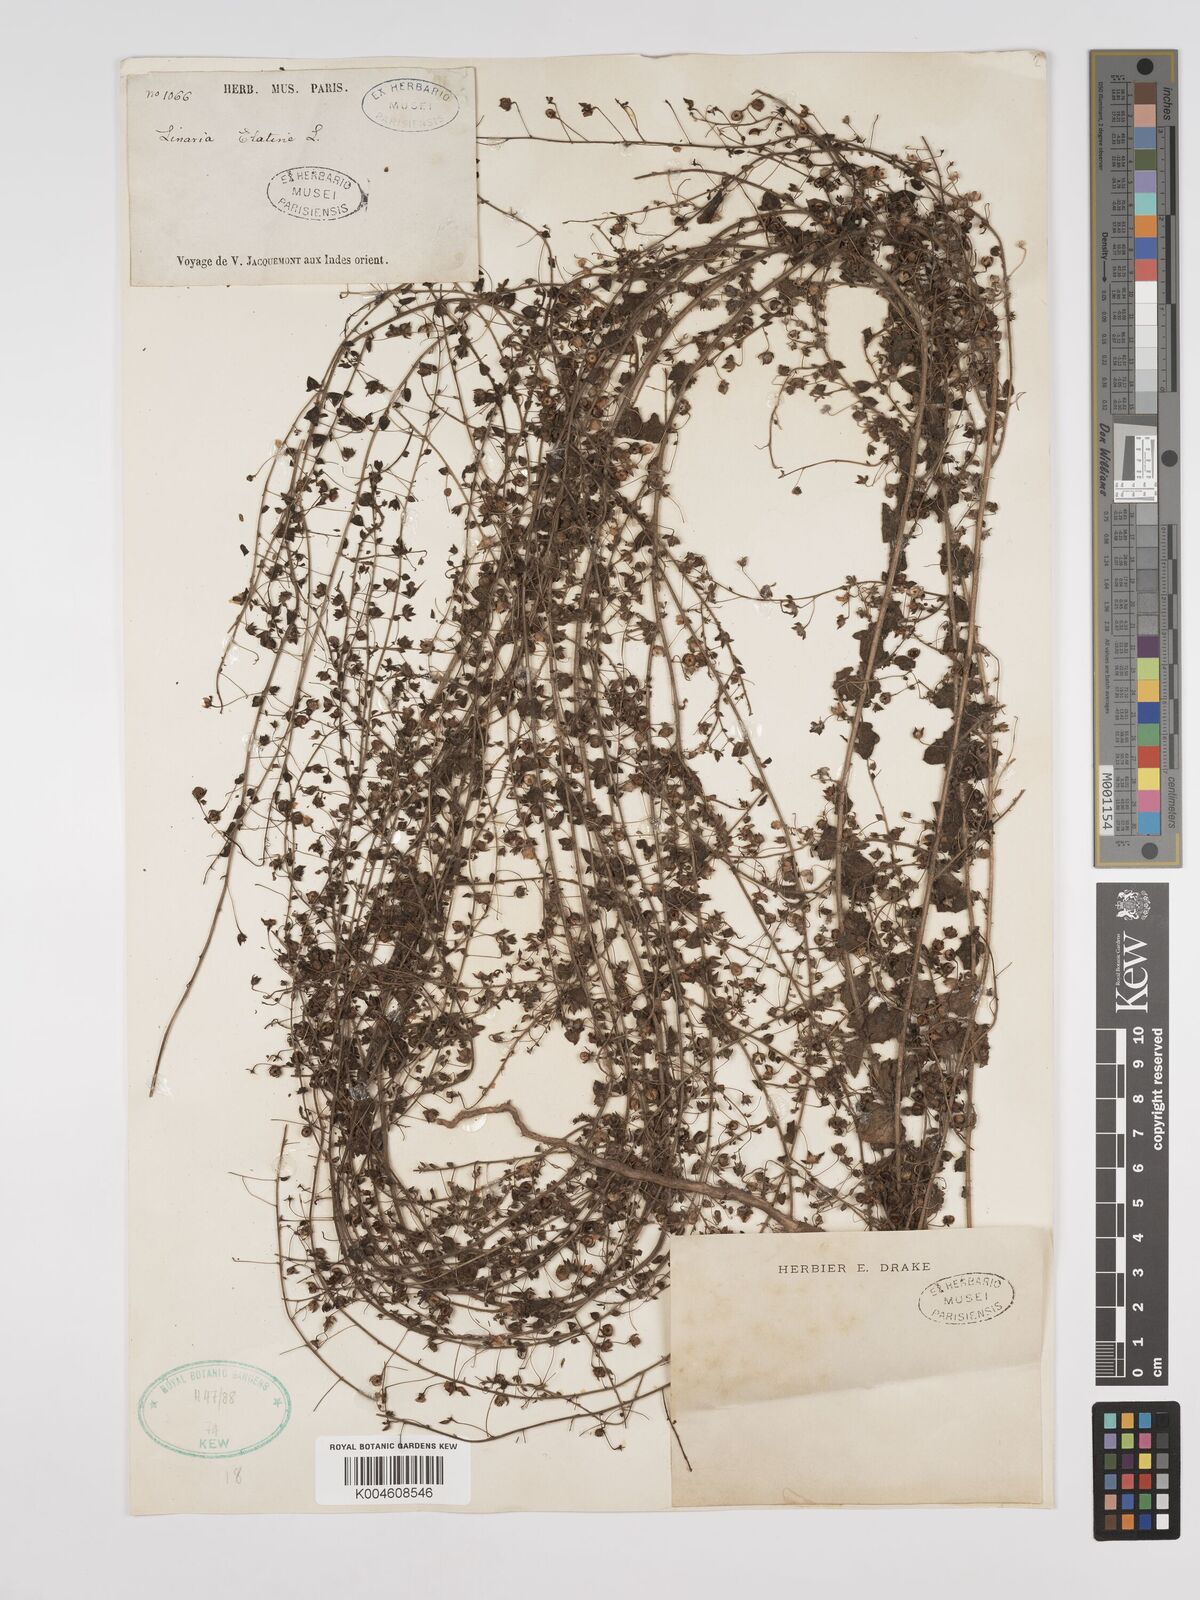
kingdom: Plantae
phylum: Tracheophyta
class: Magnoliopsida
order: Lamiales
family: Plantaginaceae
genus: Kickxia
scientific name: Kickxia elatine
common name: Sharp-leaved fluellen
